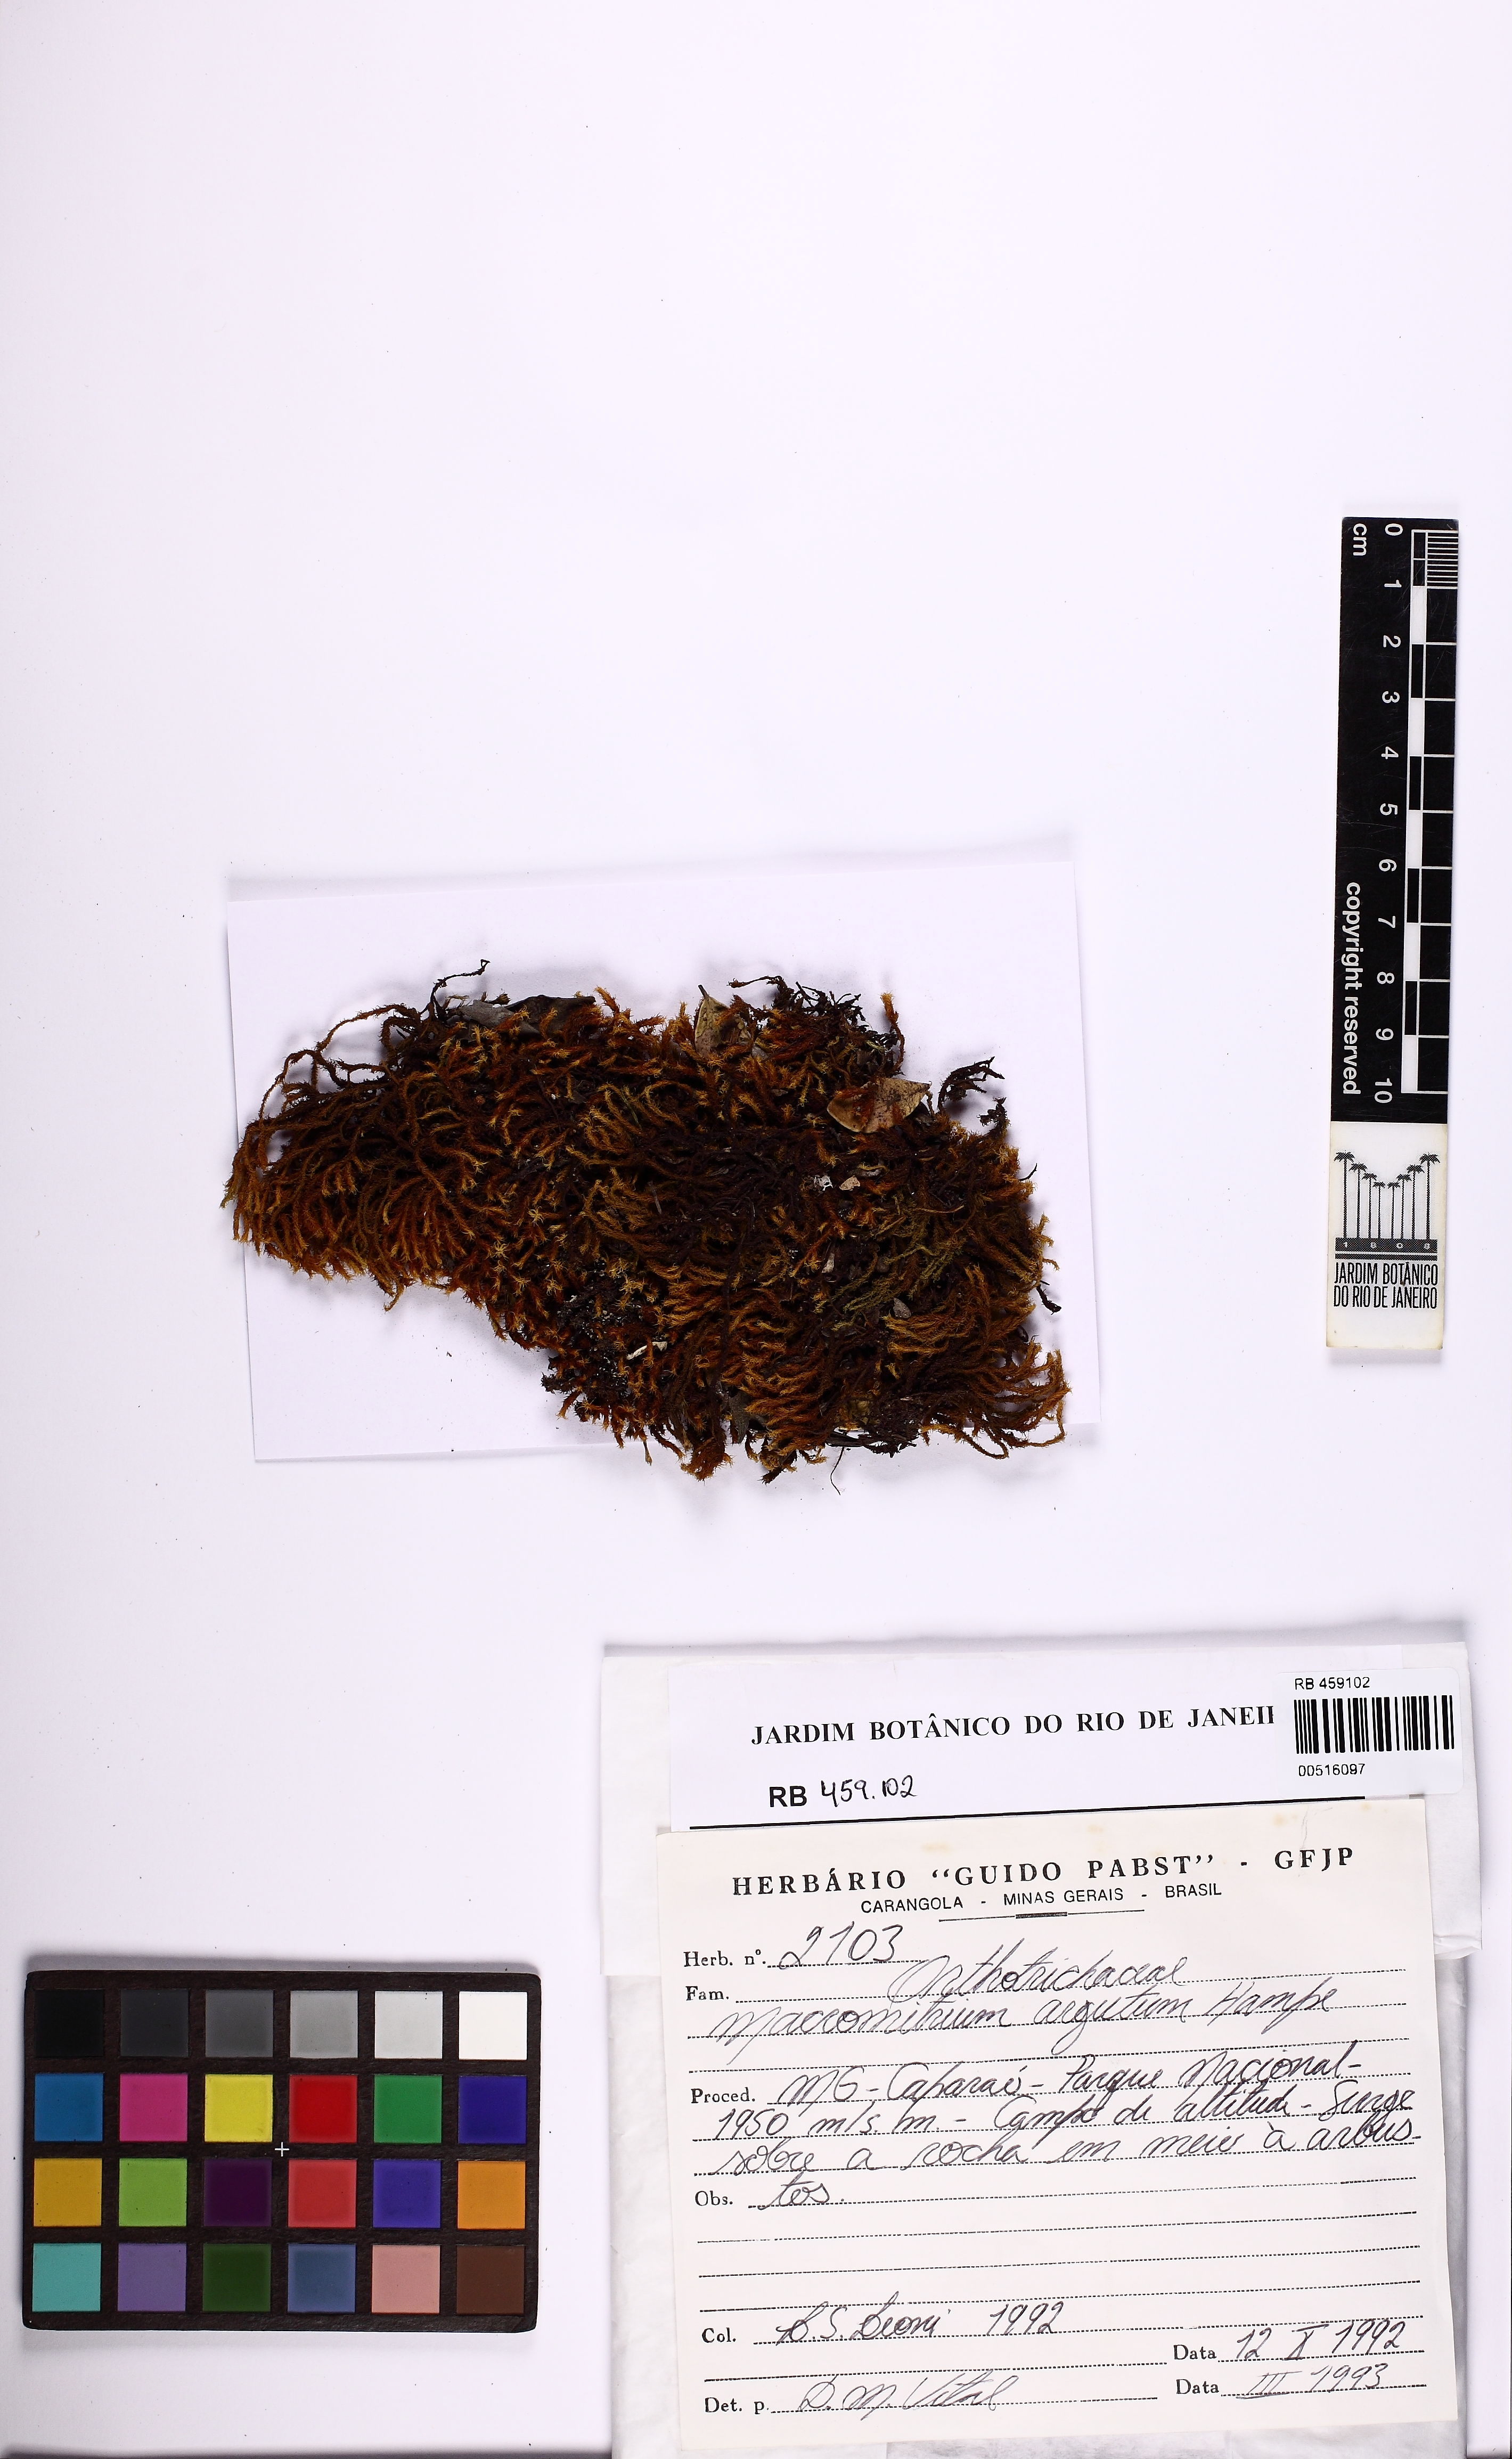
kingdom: Plantae
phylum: Bryophyta
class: Bryopsida
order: Orthotrichales
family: Orthotrichaceae
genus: Macromitrium
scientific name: Macromitrium argutum
